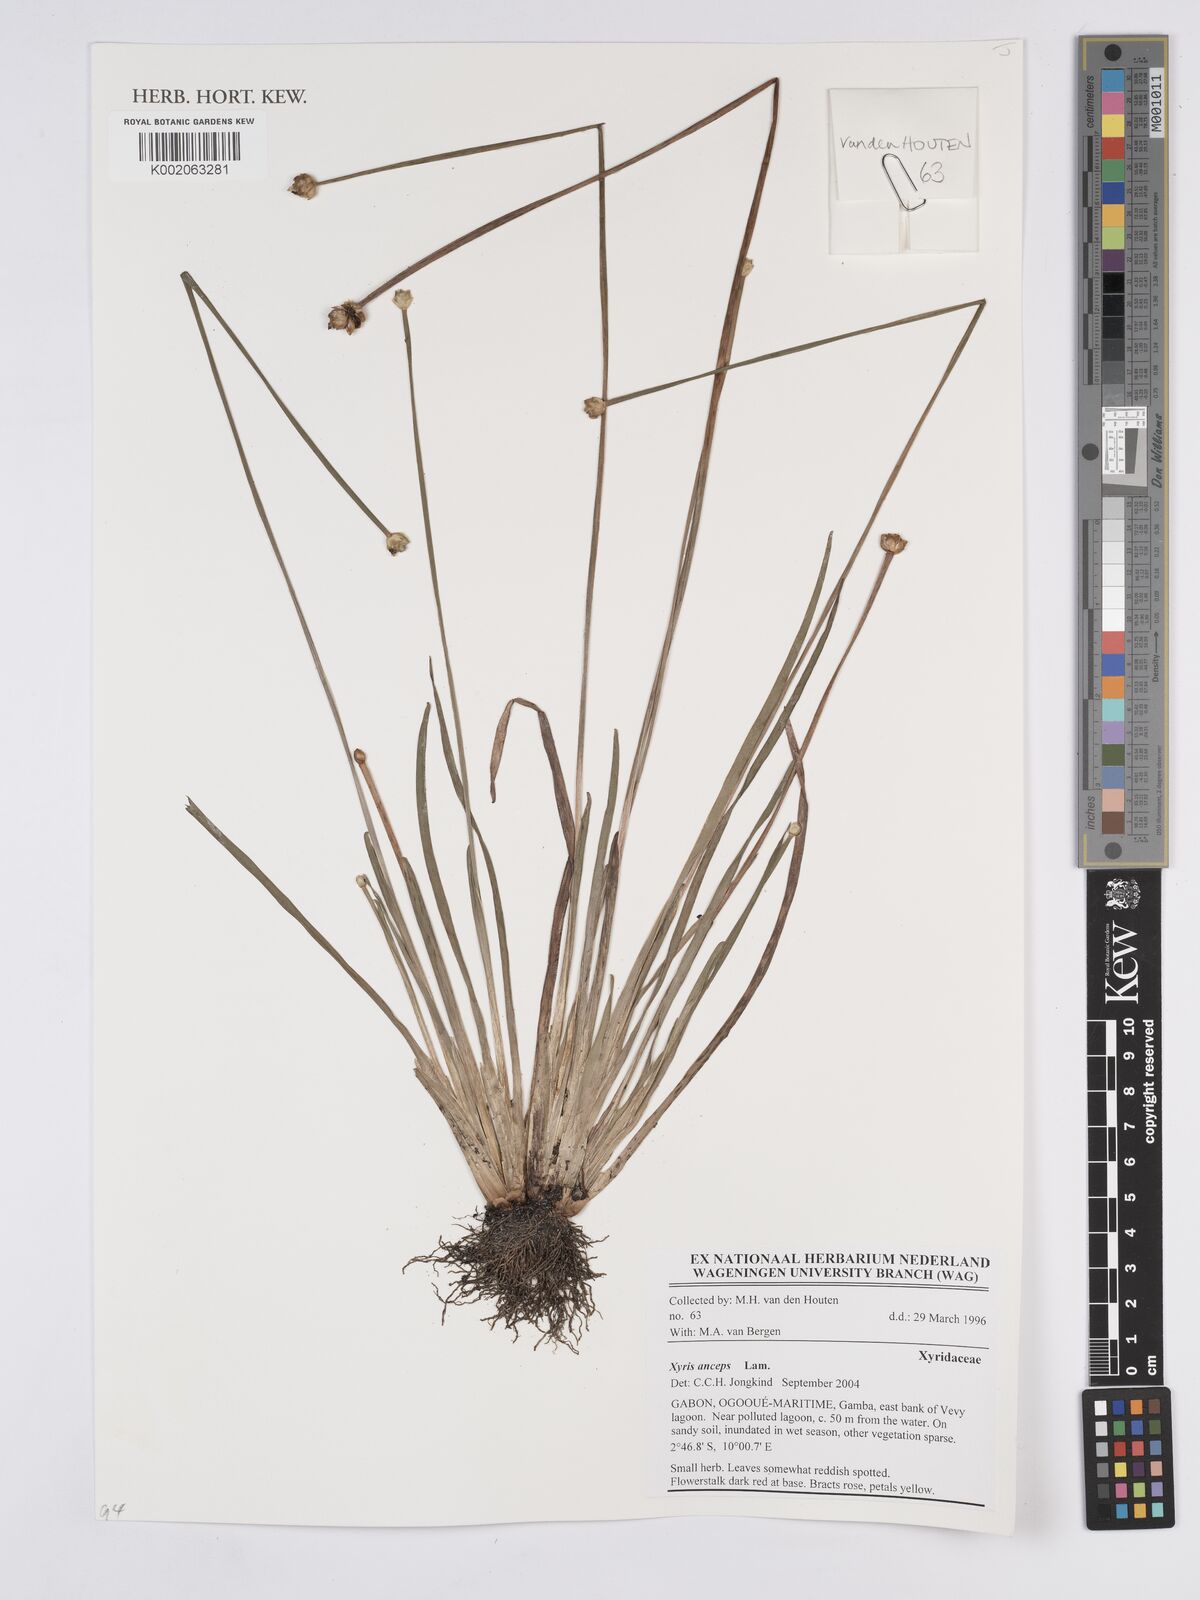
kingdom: Plantae
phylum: Tracheophyta
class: Liliopsida
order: Poales
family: Xyridaceae
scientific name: Xyridaceae
